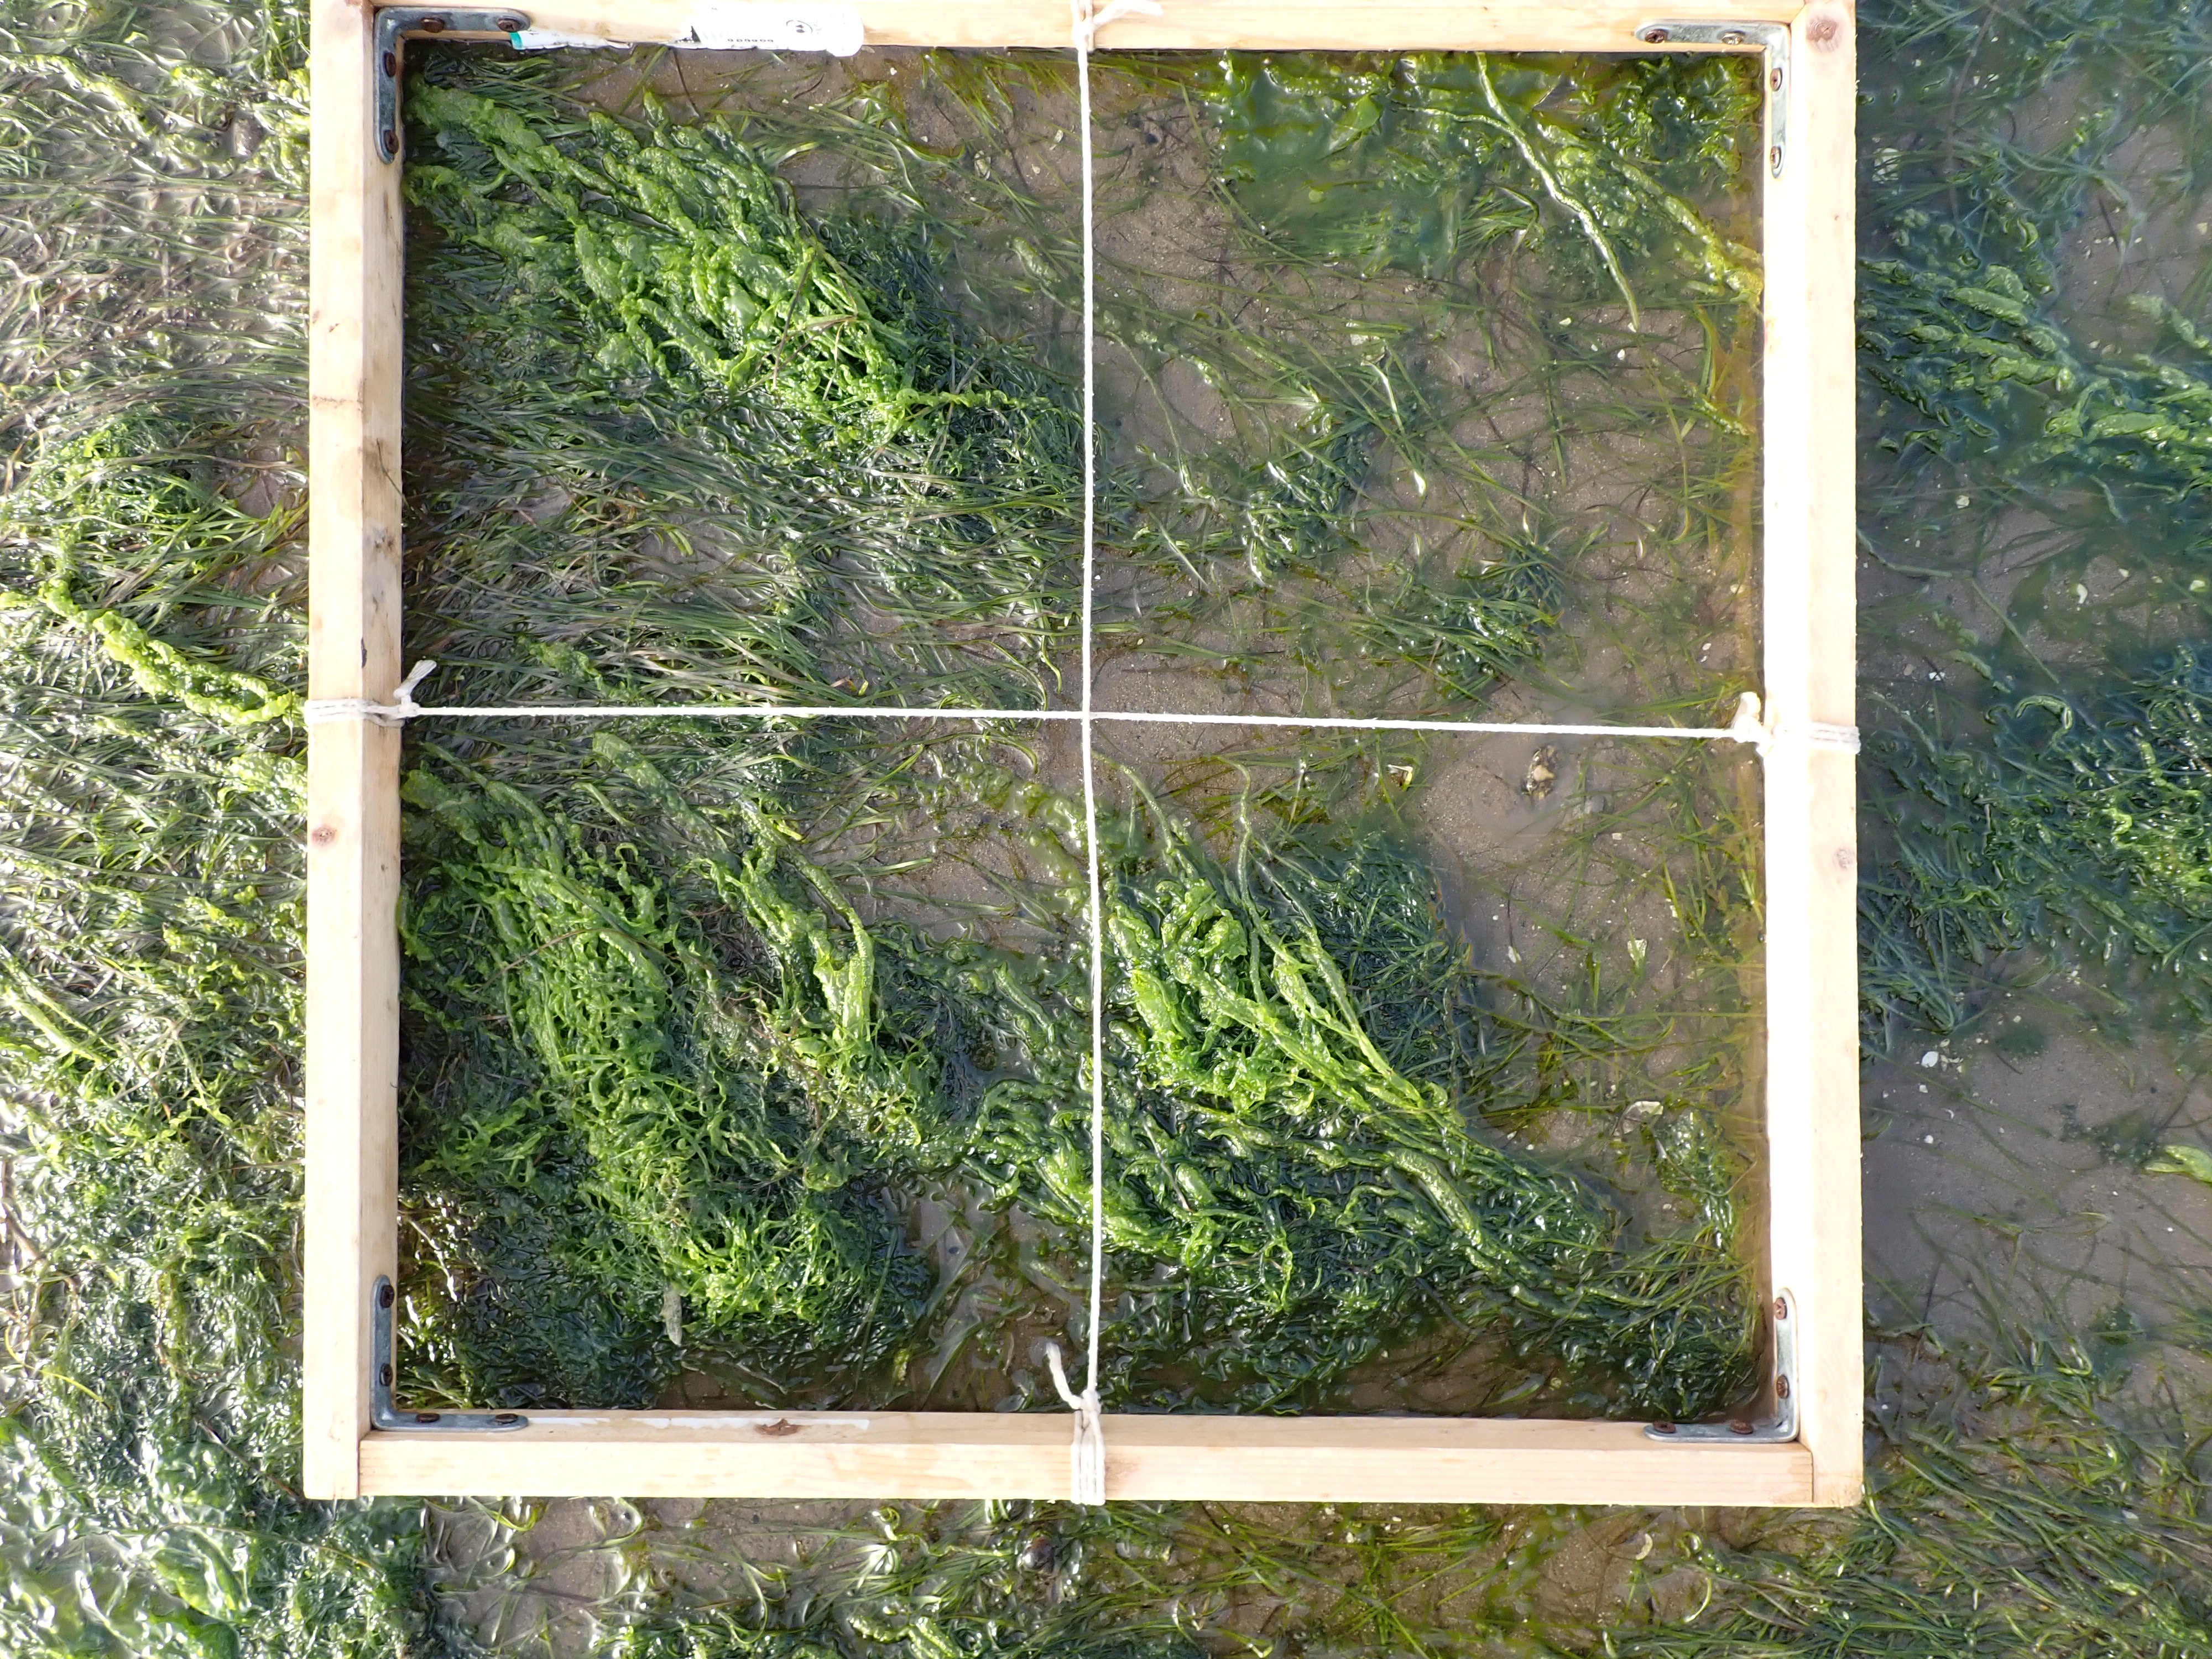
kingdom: Plantae
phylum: Tracheophyta
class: Liliopsida
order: Alismatales
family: Zosteraceae
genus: Zostera
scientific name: Zostera noltii
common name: Dwarf eelgrass
